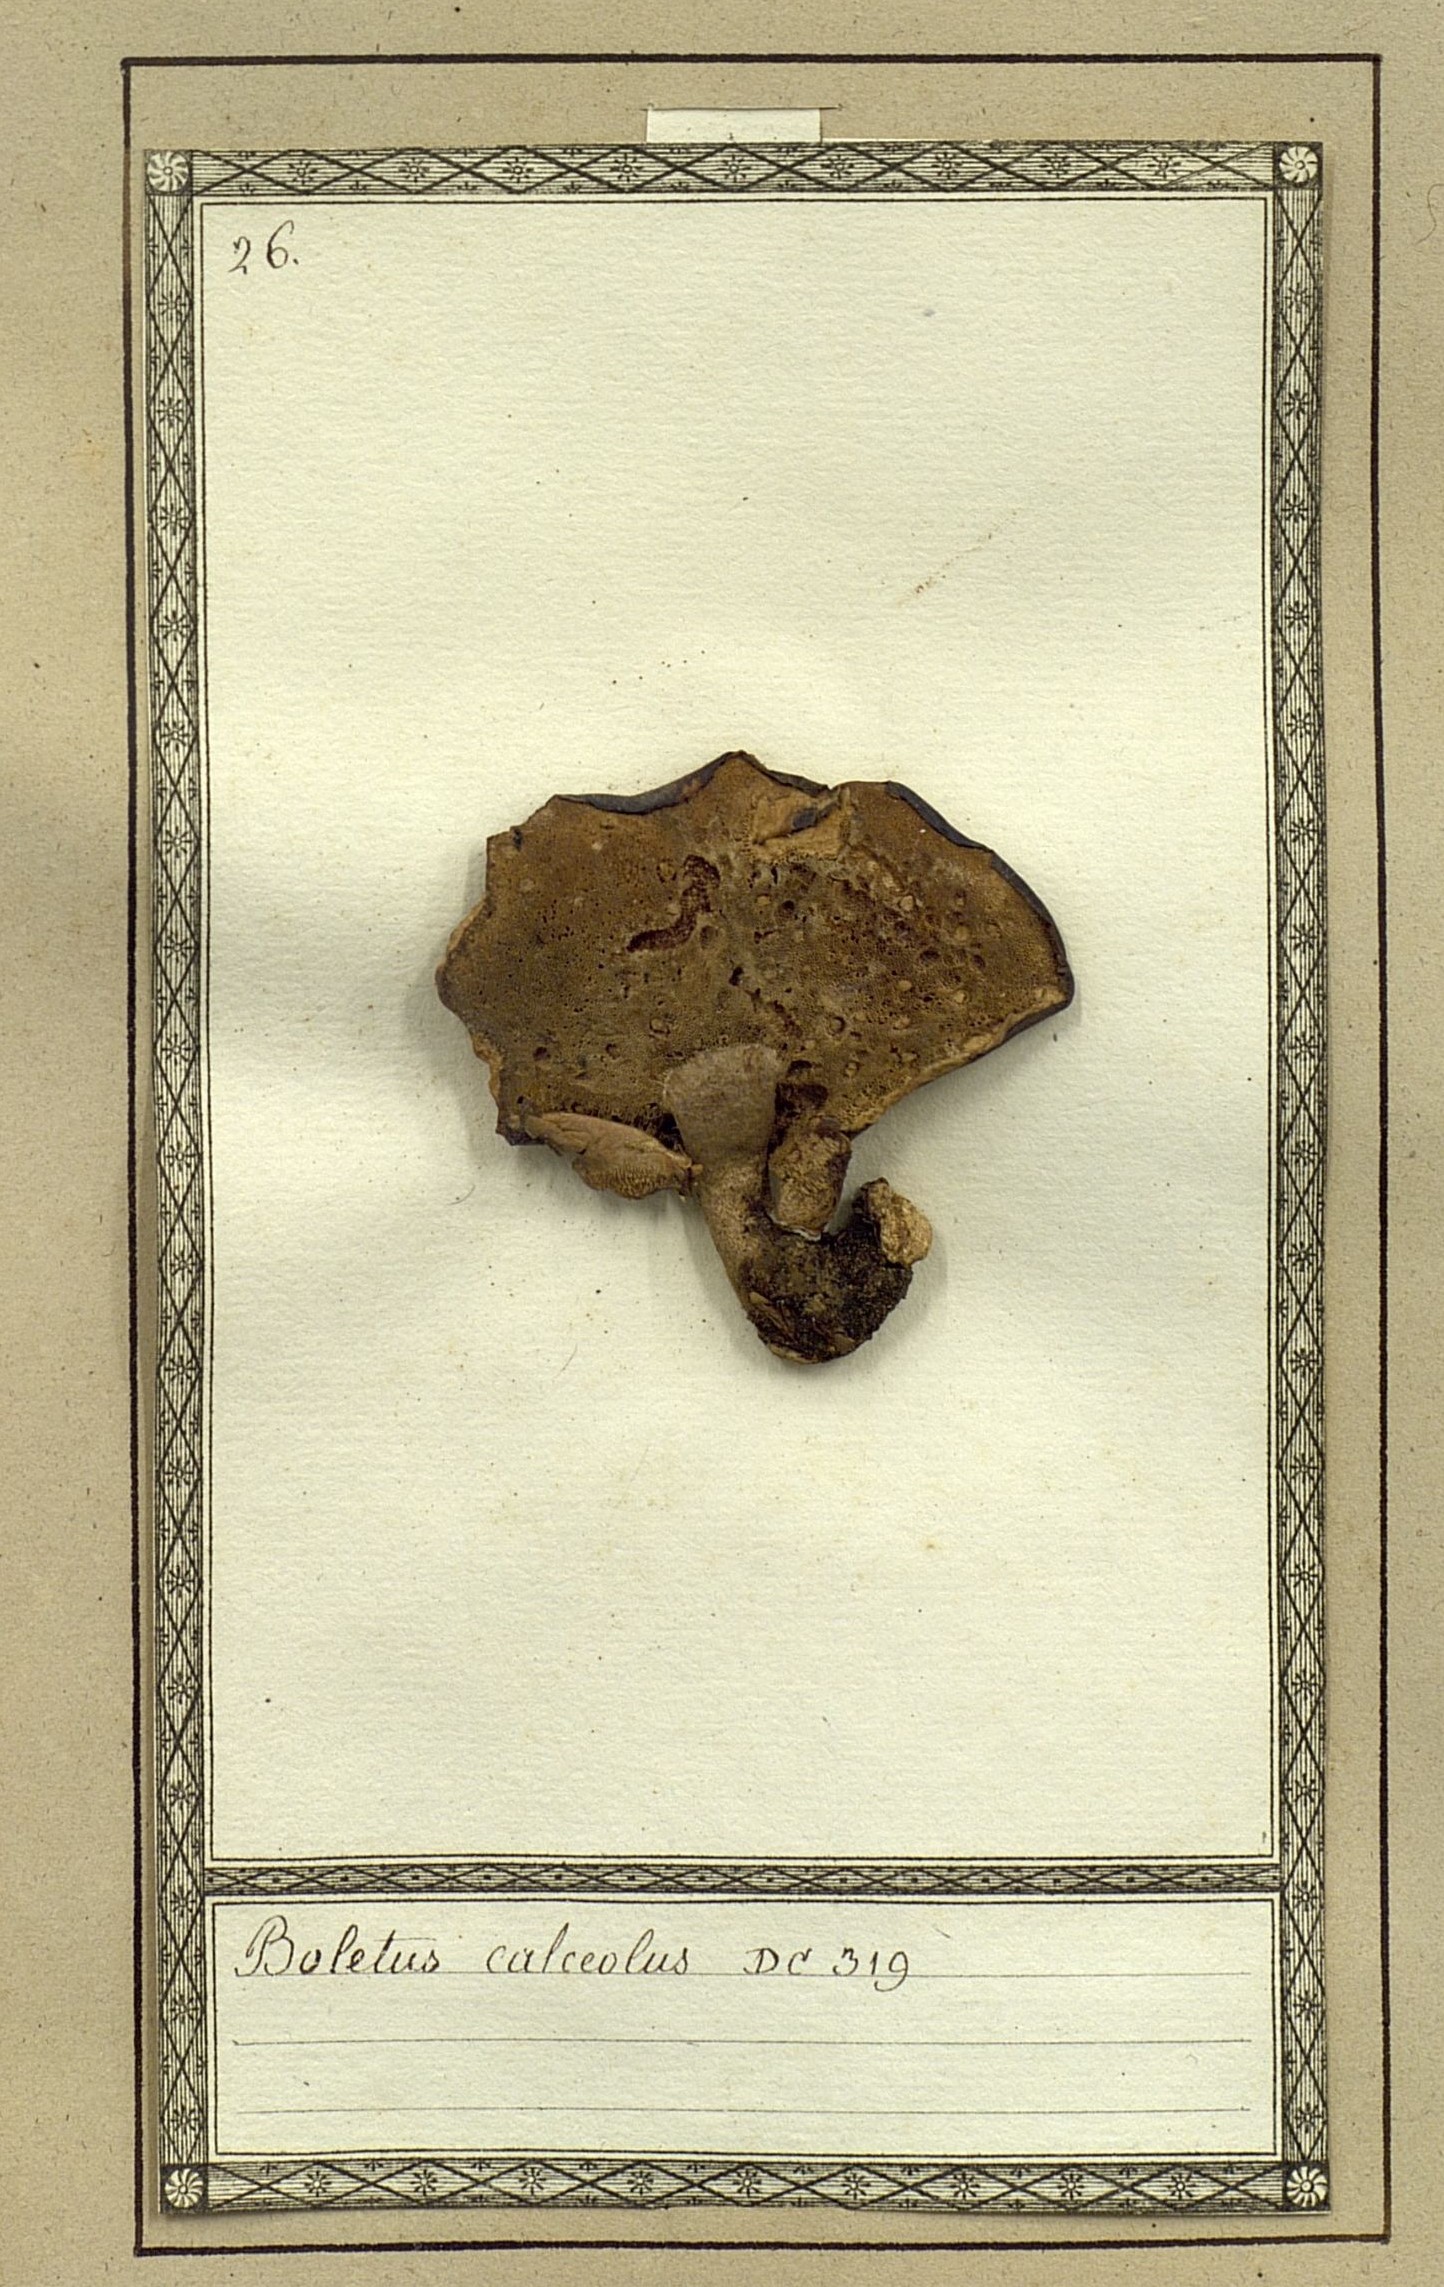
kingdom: Fungi
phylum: Basidiomycota
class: Agaricomycetes
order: Polyporales
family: Polyporaceae
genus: Cerioporus
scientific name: Cerioporus varius
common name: Elegant polypore
